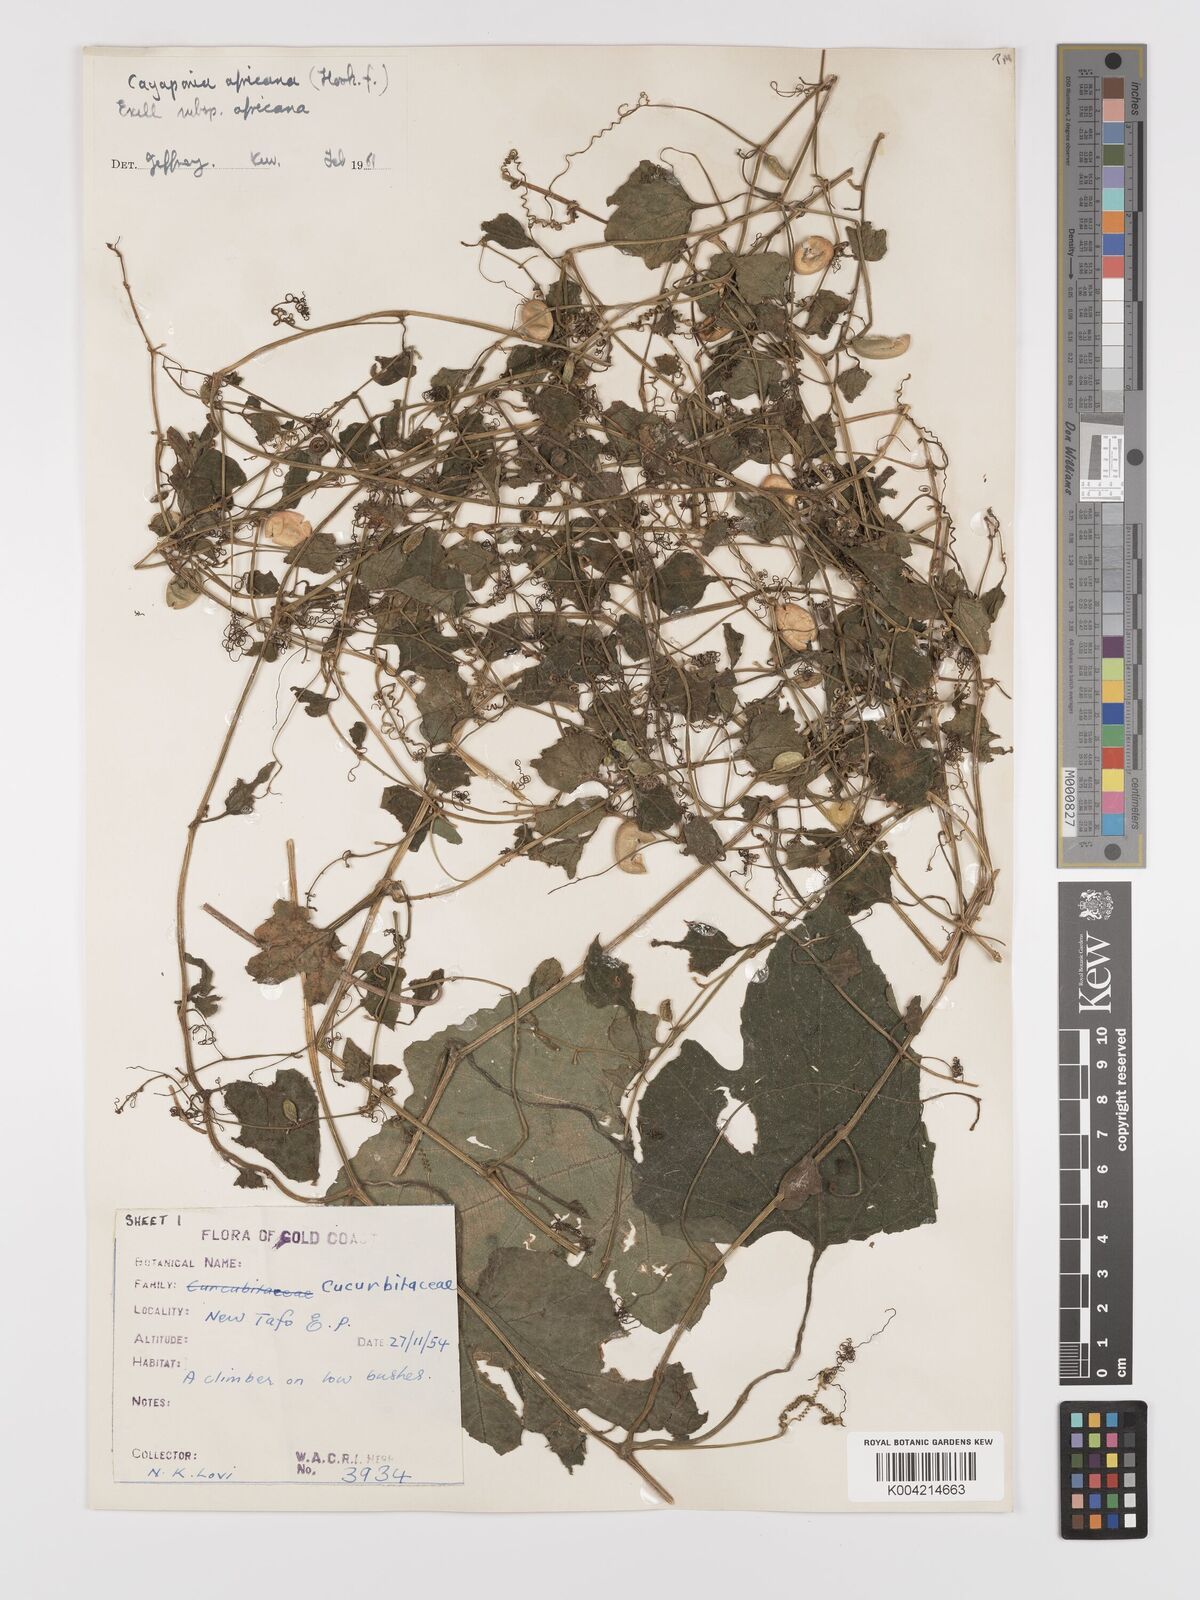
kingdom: Plantae
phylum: Tracheophyta
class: Magnoliopsida
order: Cucurbitales
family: Cucurbitaceae
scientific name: Cucurbitaceae
